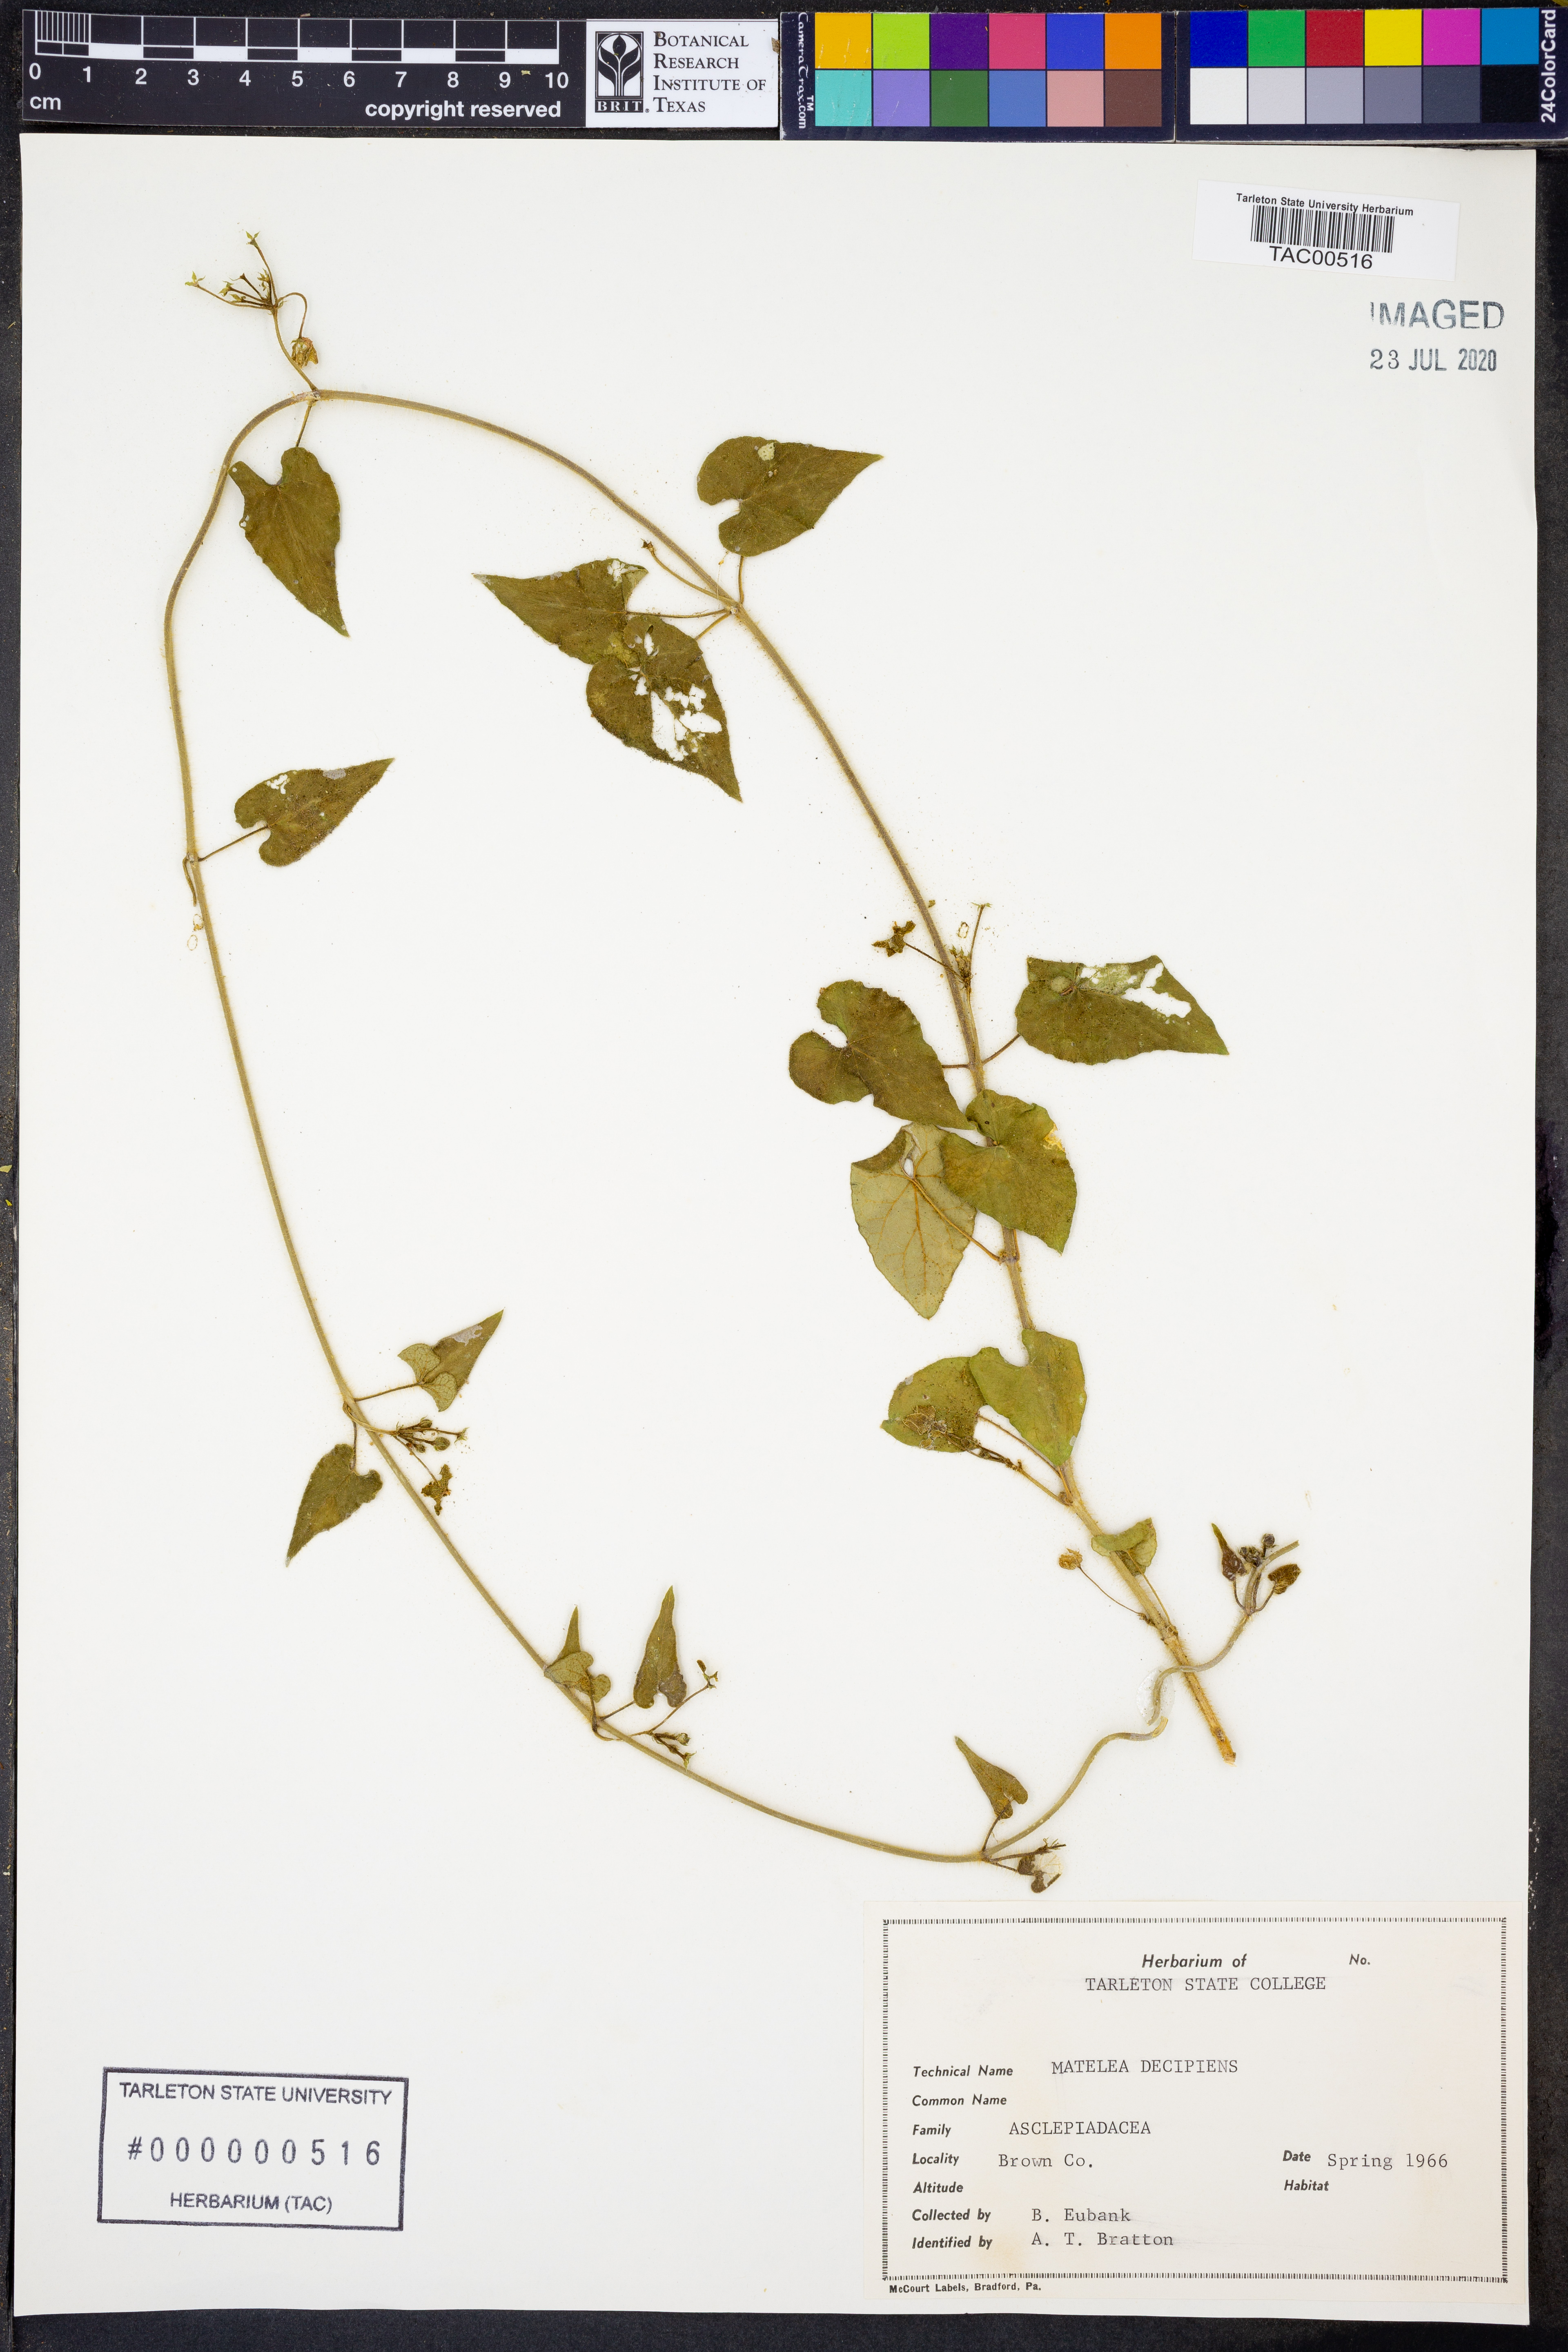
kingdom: Plantae
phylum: Tracheophyta
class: Magnoliopsida
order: Gentianales
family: Apocynaceae
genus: Matelea
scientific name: Matelea decipiens
